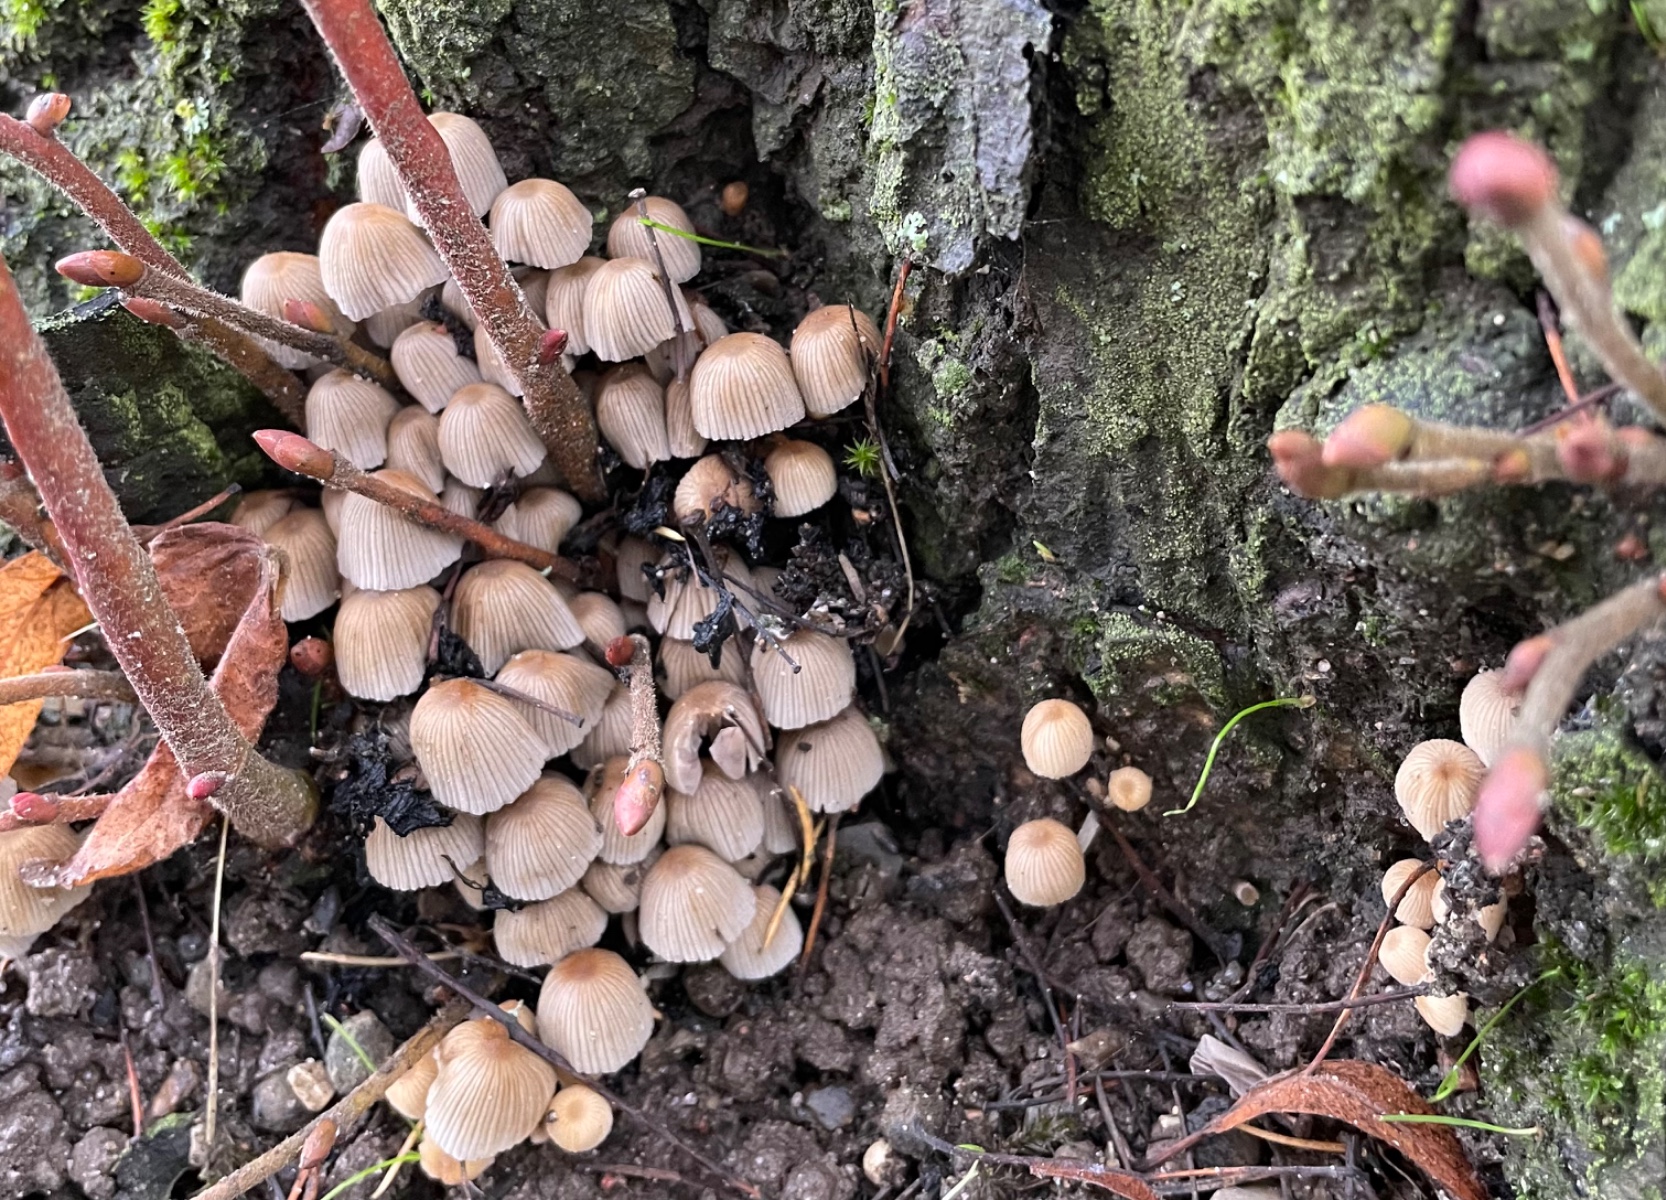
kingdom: Fungi
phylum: Basidiomycota
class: Agaricomycetes
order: Agaricales
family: Psathyrellaceae
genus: Coprinellus
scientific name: Coprinellus disseminatus
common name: bredsået blækhat
